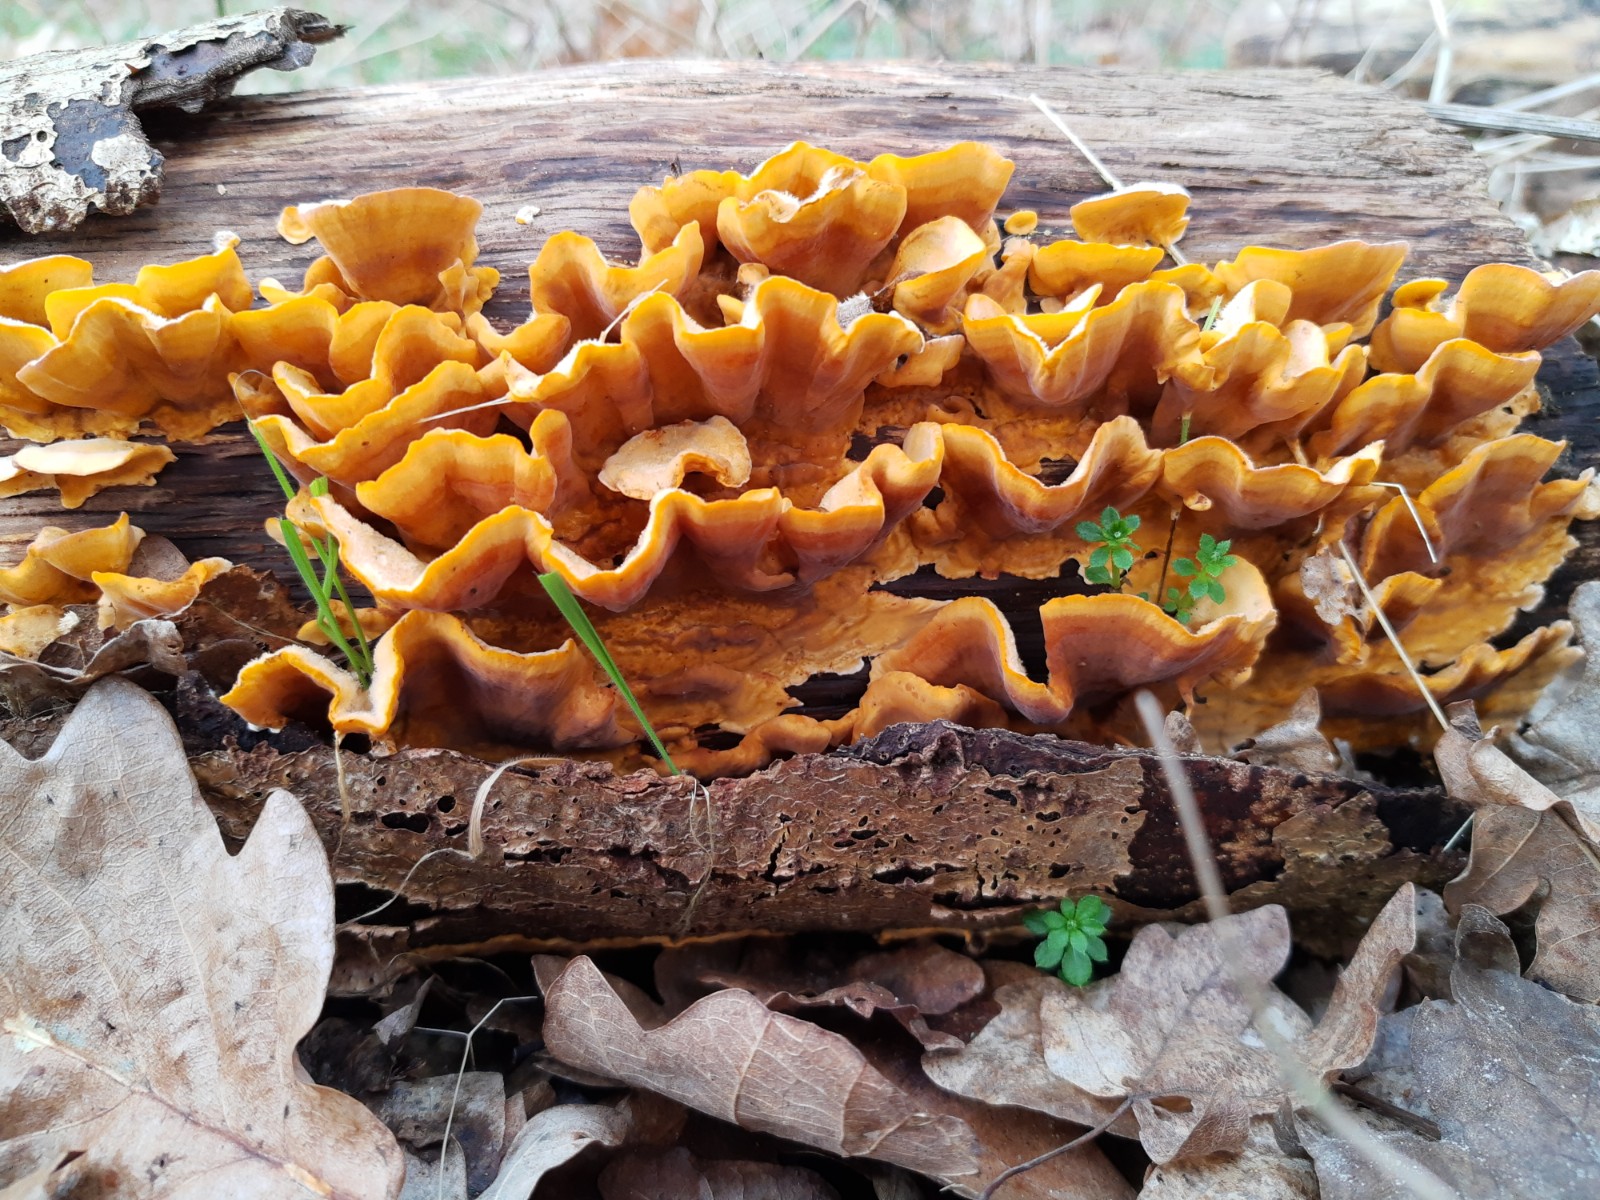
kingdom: Fungi
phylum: Basidiomycota
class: Agaricomycetes
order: Russulales
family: Stereaceae
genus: Stereum
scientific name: Stereum hirsutum
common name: håret lædersvamp
